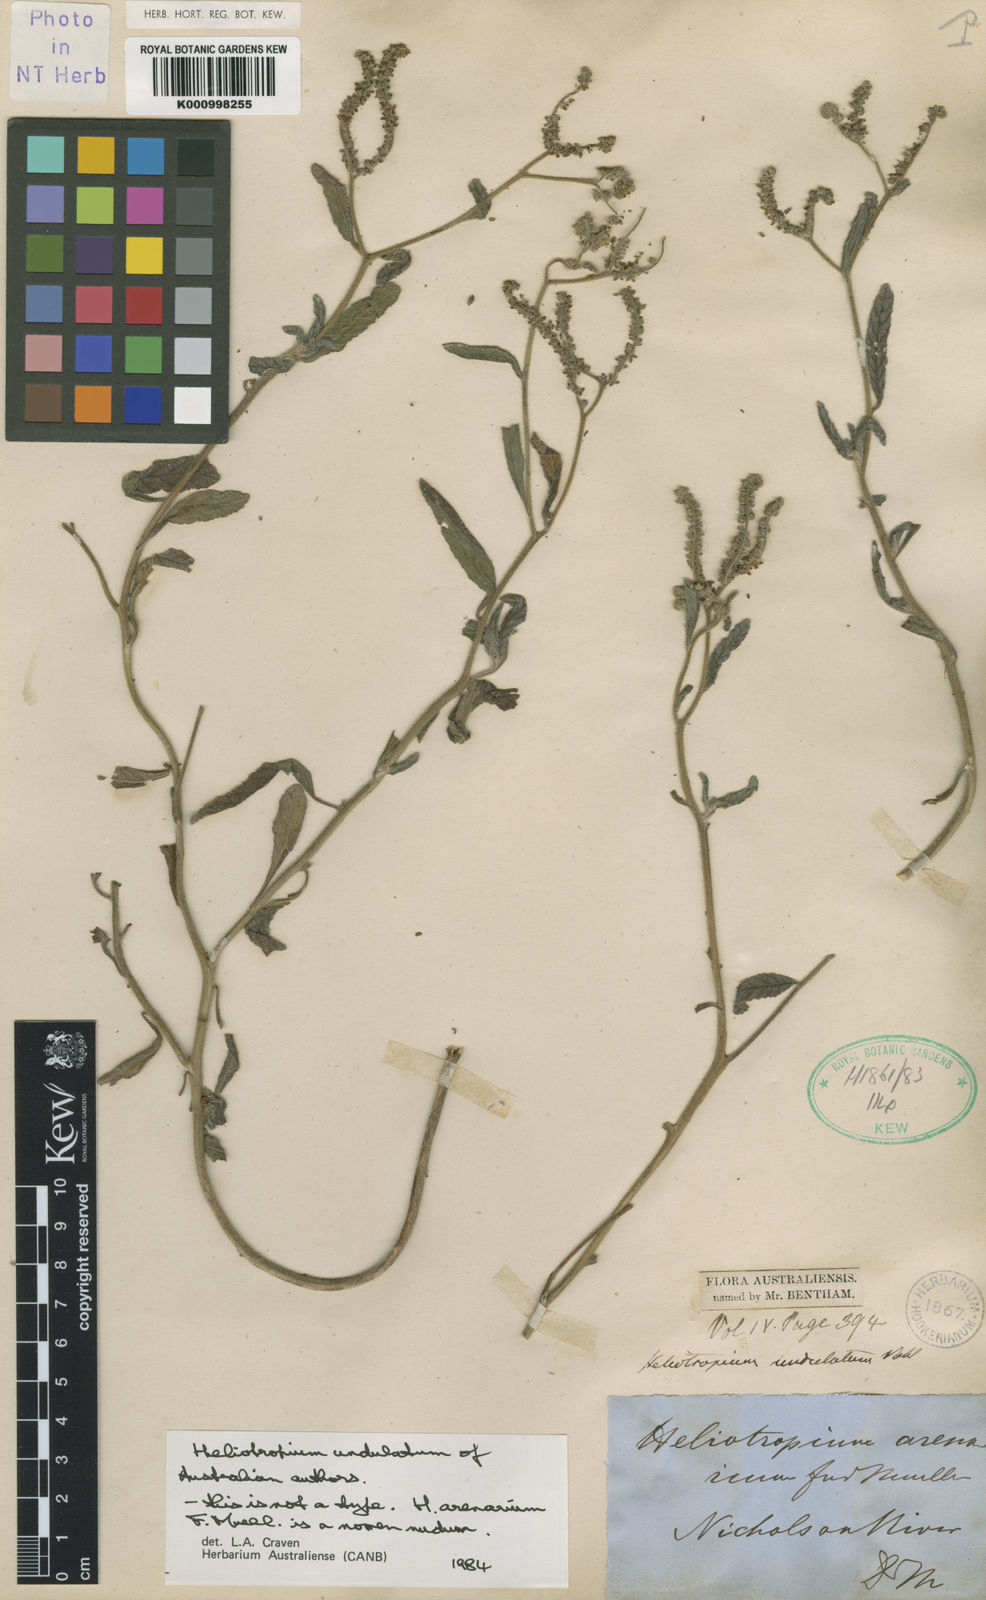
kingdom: Plantae
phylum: Tracheophyta
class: Magnoliopsida
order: Boraginales
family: Heliotropiaceae
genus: Heliotropium
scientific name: Heliotropium bacciferum
